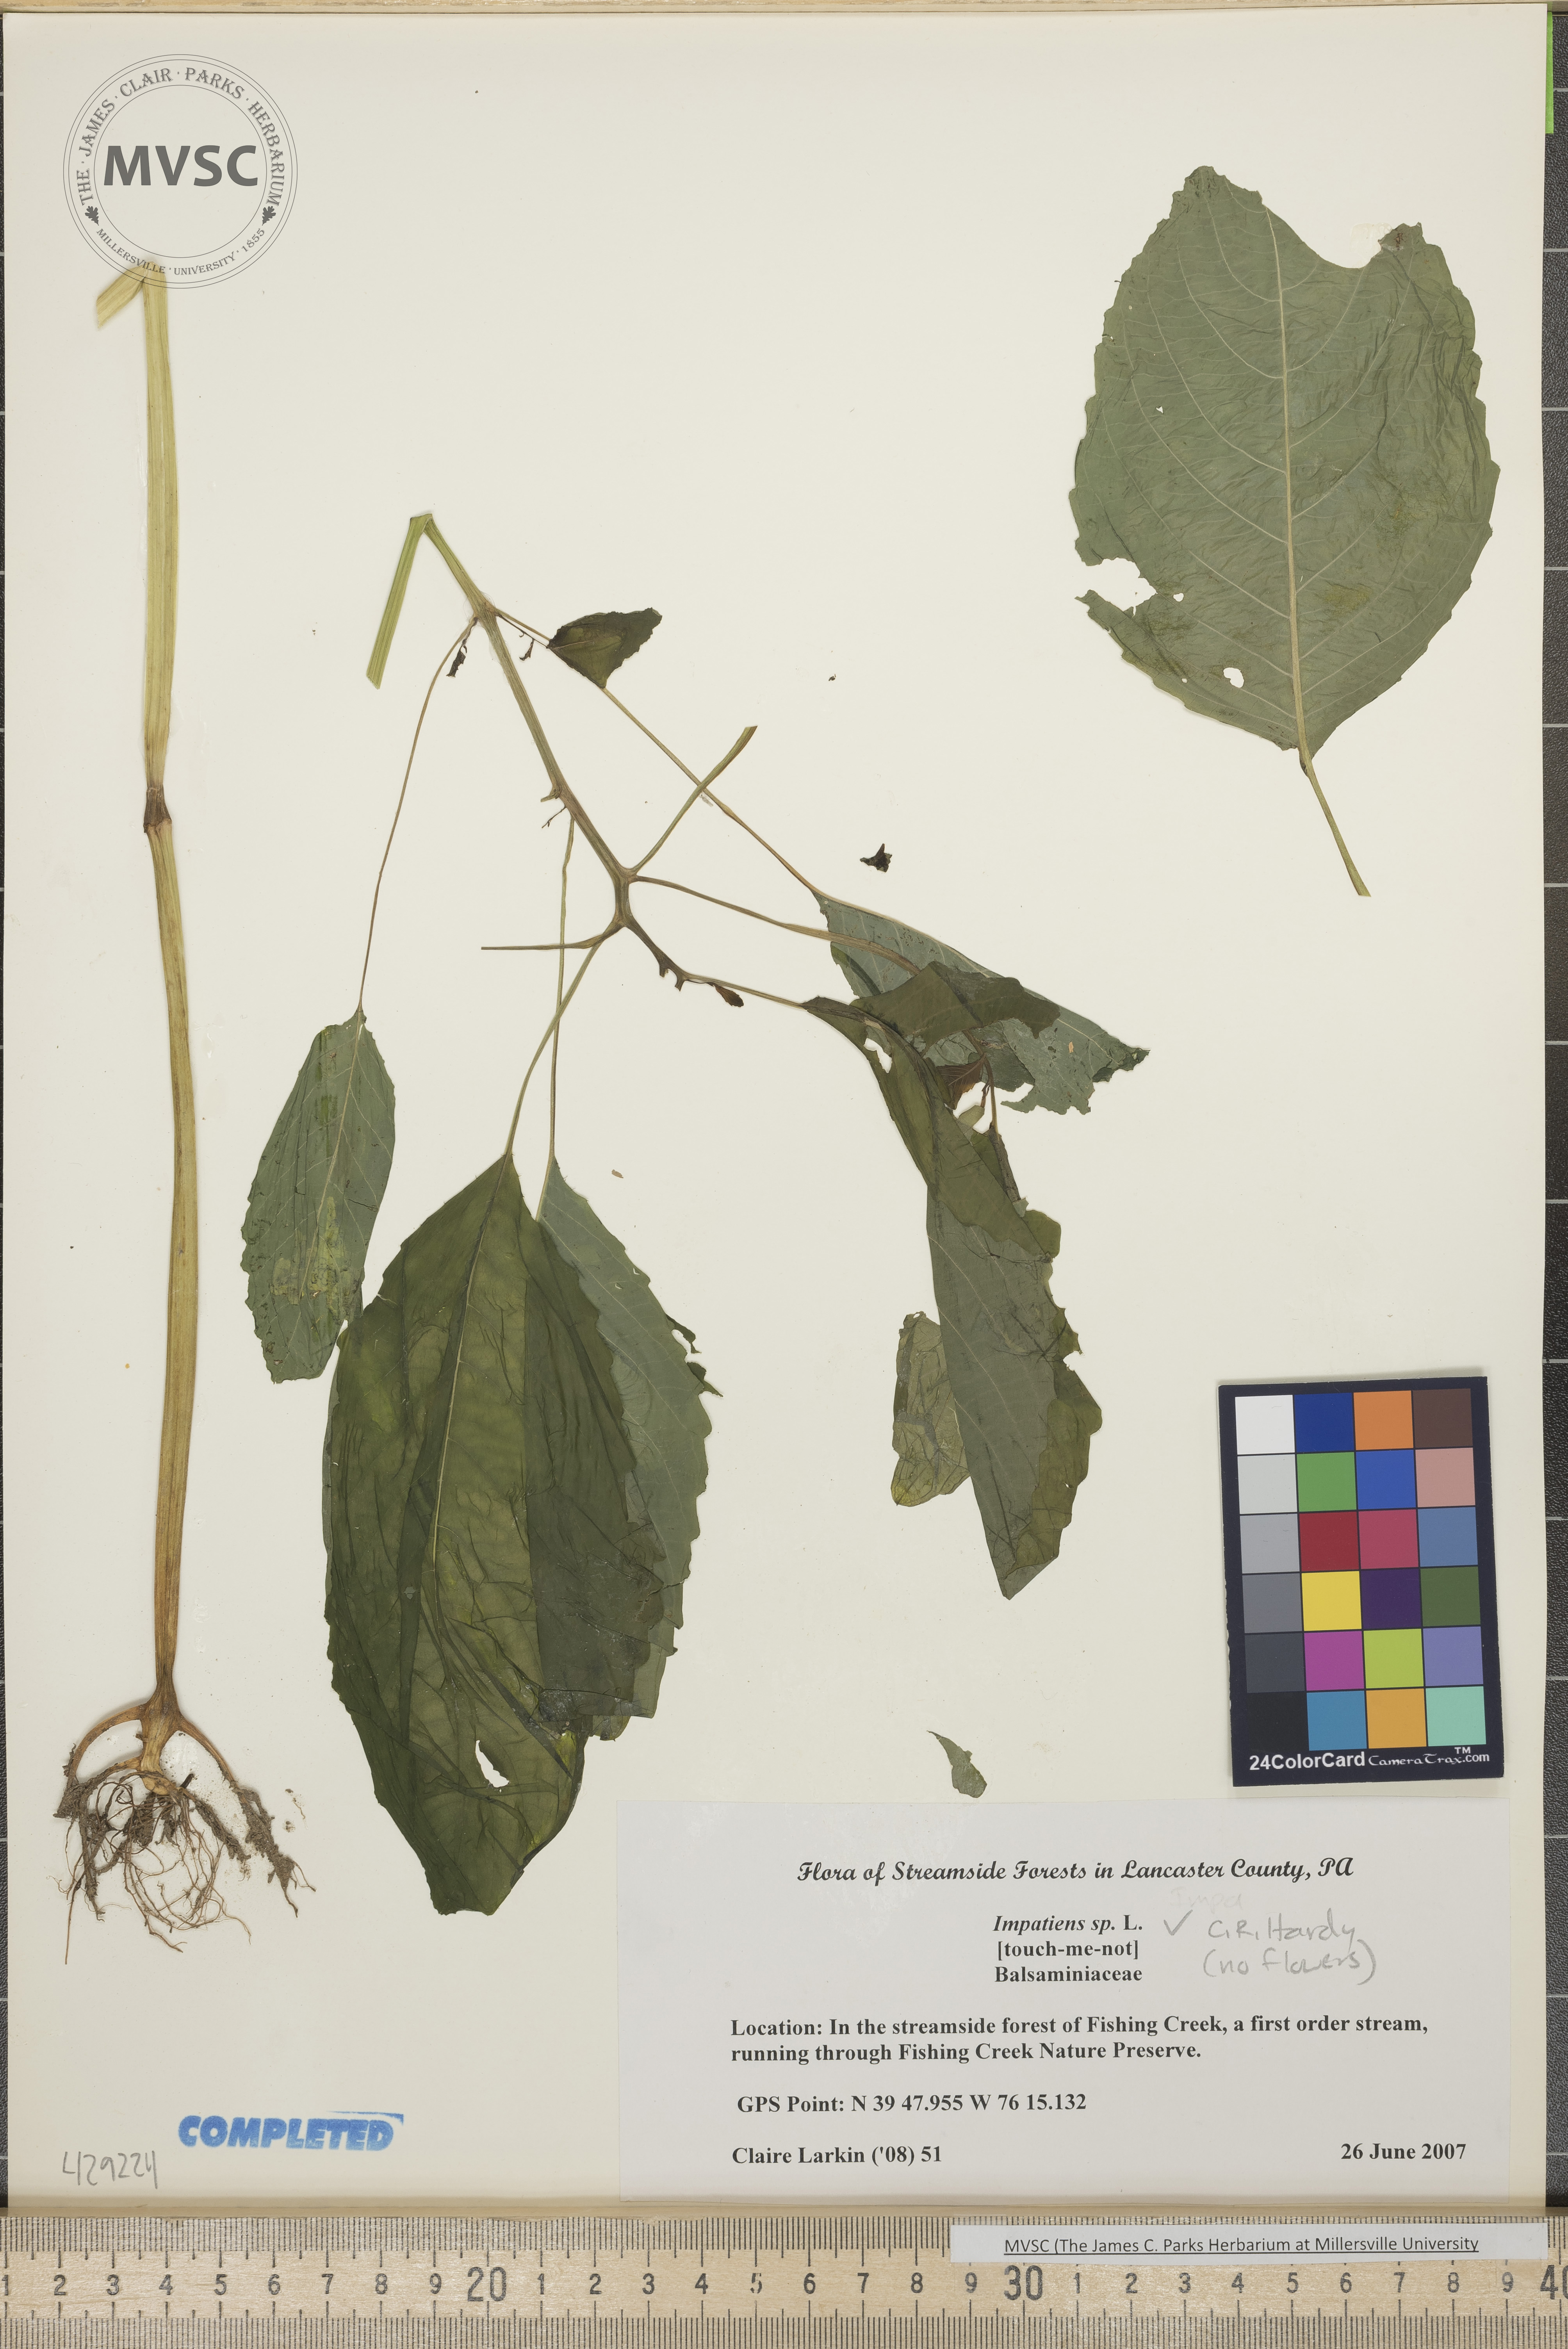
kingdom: Plantae
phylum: Tracheophyta
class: Magnoliopsida
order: Ericales
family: Balsaminaceae
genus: Impatiens
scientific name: Impatiens
